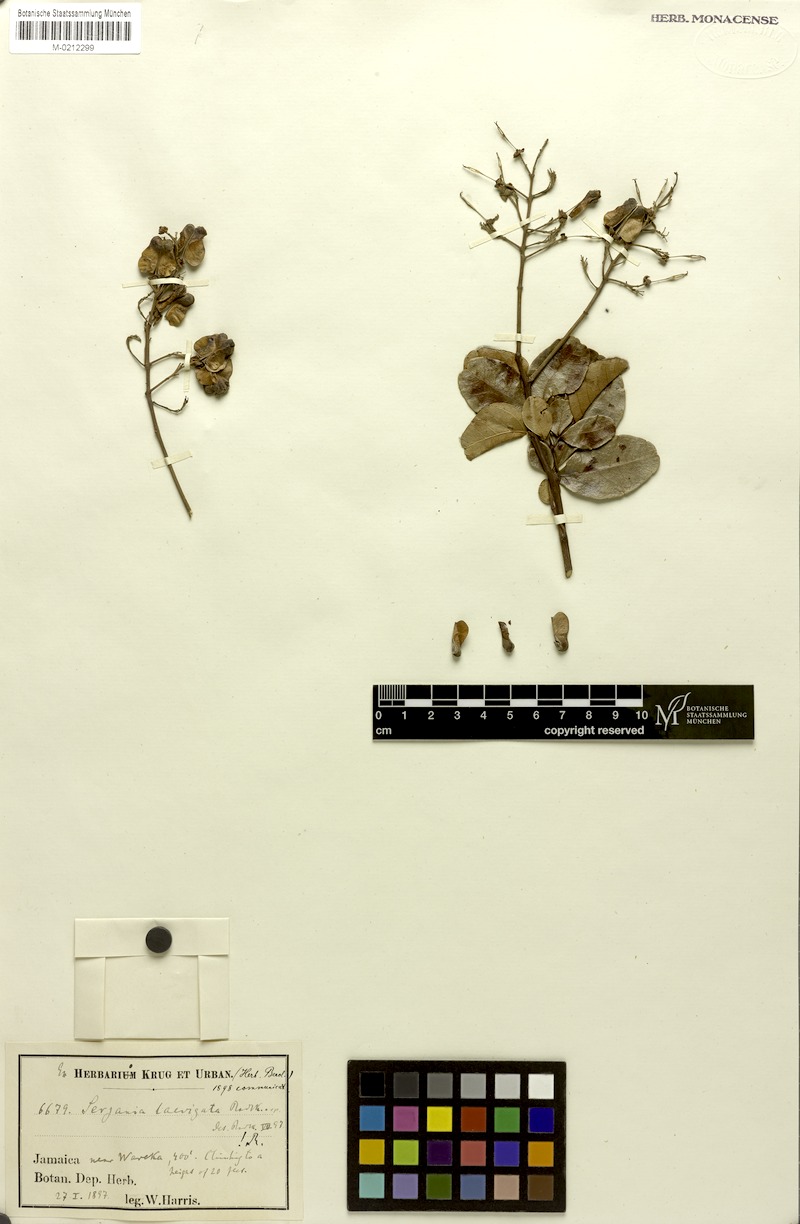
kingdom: Plantae
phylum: Tracheophyta
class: Magnoliopsida
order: Sapindales
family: Sapindaceae
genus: Serjania
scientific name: Serjania laevigata
